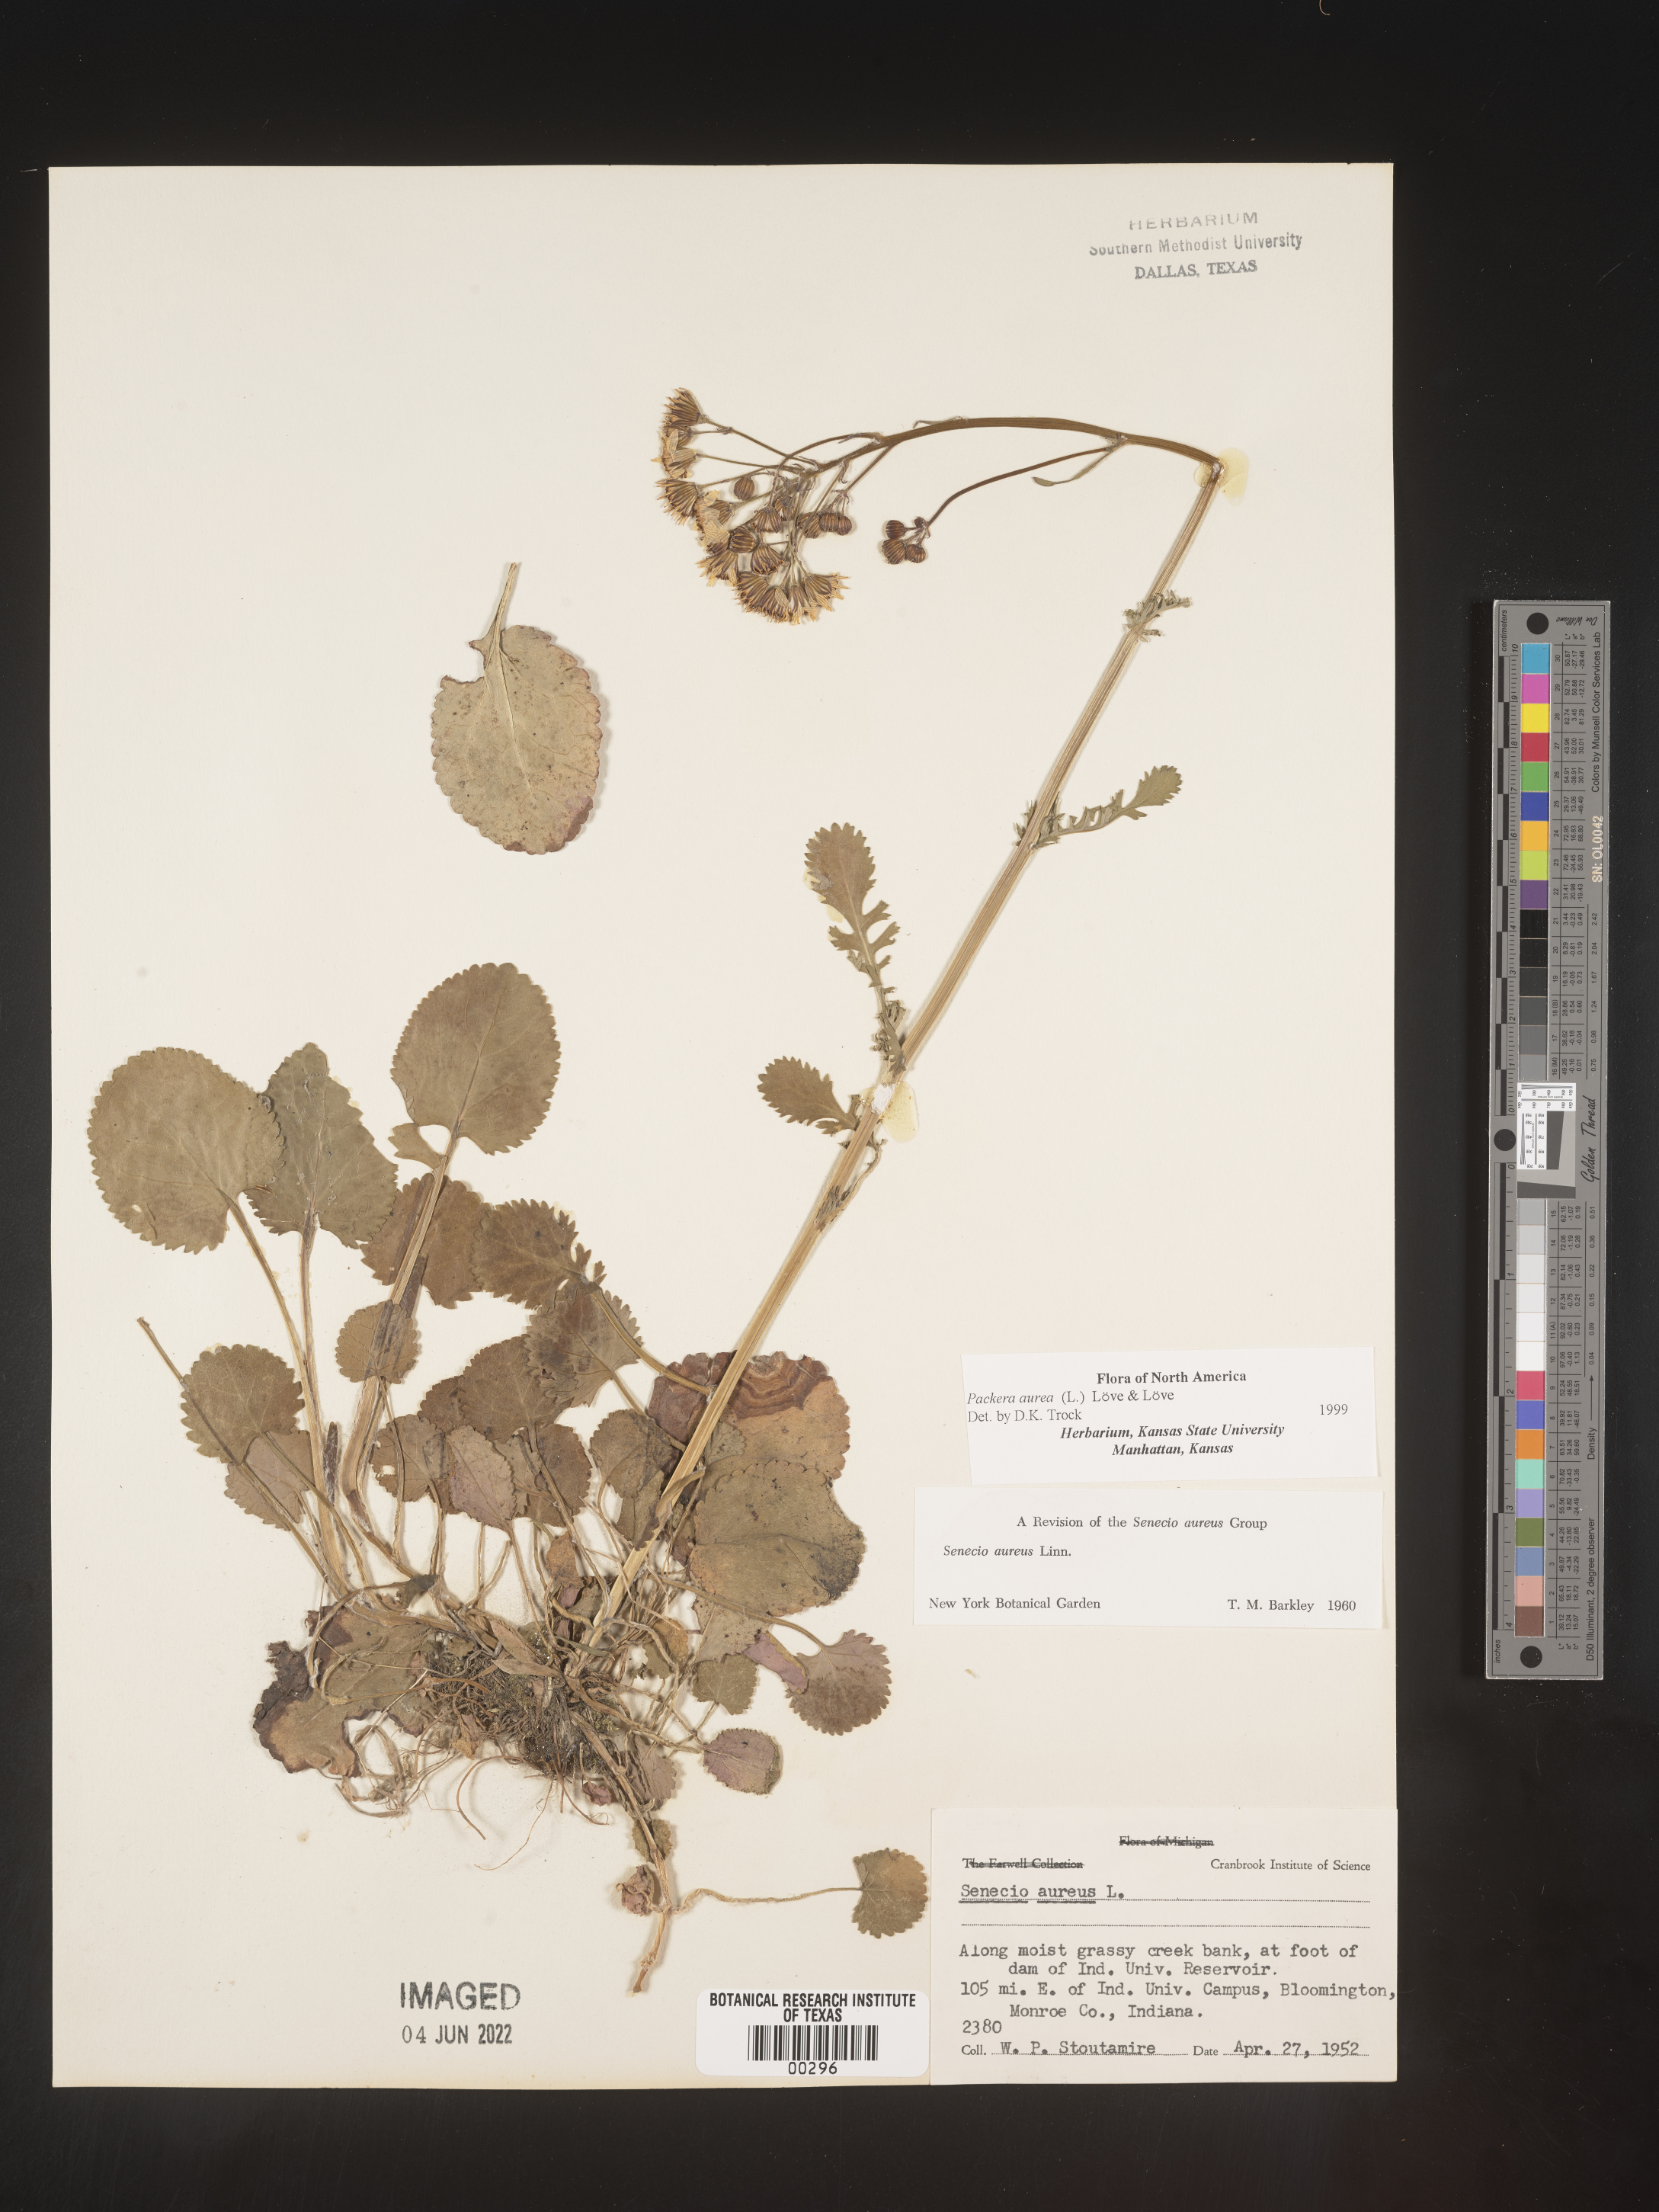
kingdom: Plantae
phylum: Tracheophyta
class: Magnoliopsida
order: Asterales
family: Asteraceae
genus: Packera
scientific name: Packera aurea
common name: Golden groundsel
